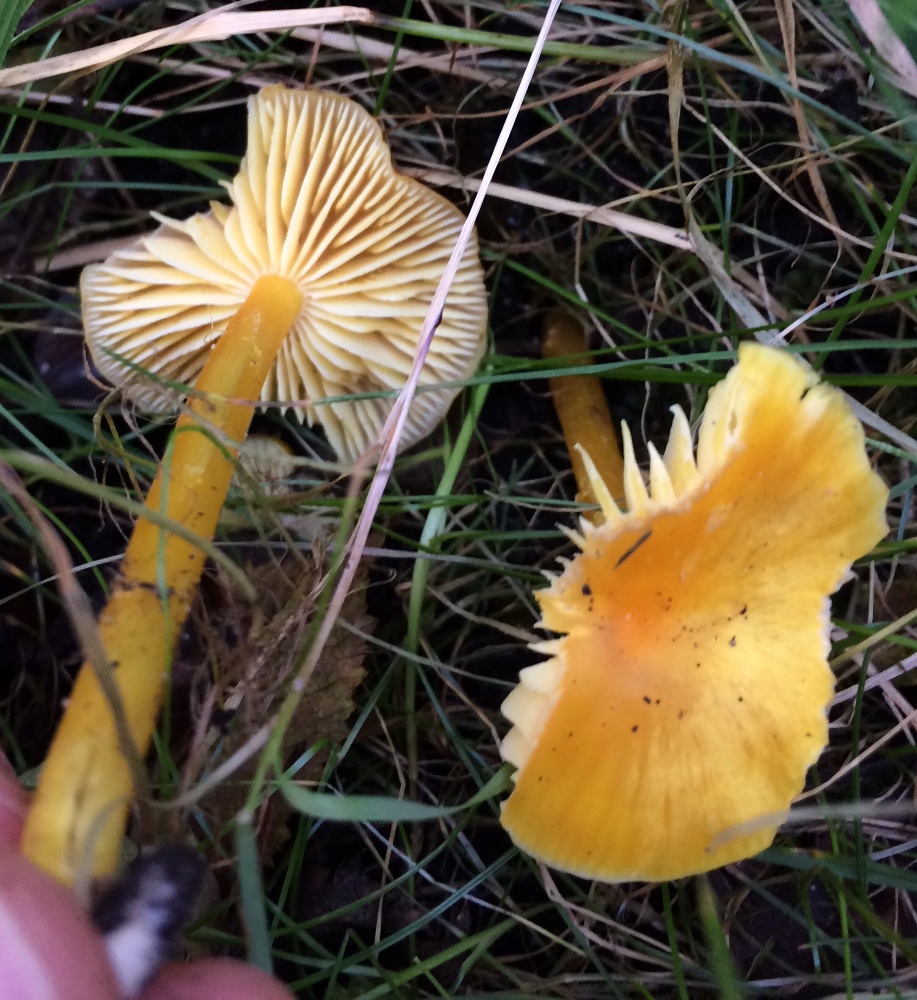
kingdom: Fungi
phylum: Basidiomycota
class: Agaricomycetes
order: Agaricales
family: Hygrophoraceae
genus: Hygrocybe
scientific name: Hygrocybe chlorophana
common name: gul vokshat
